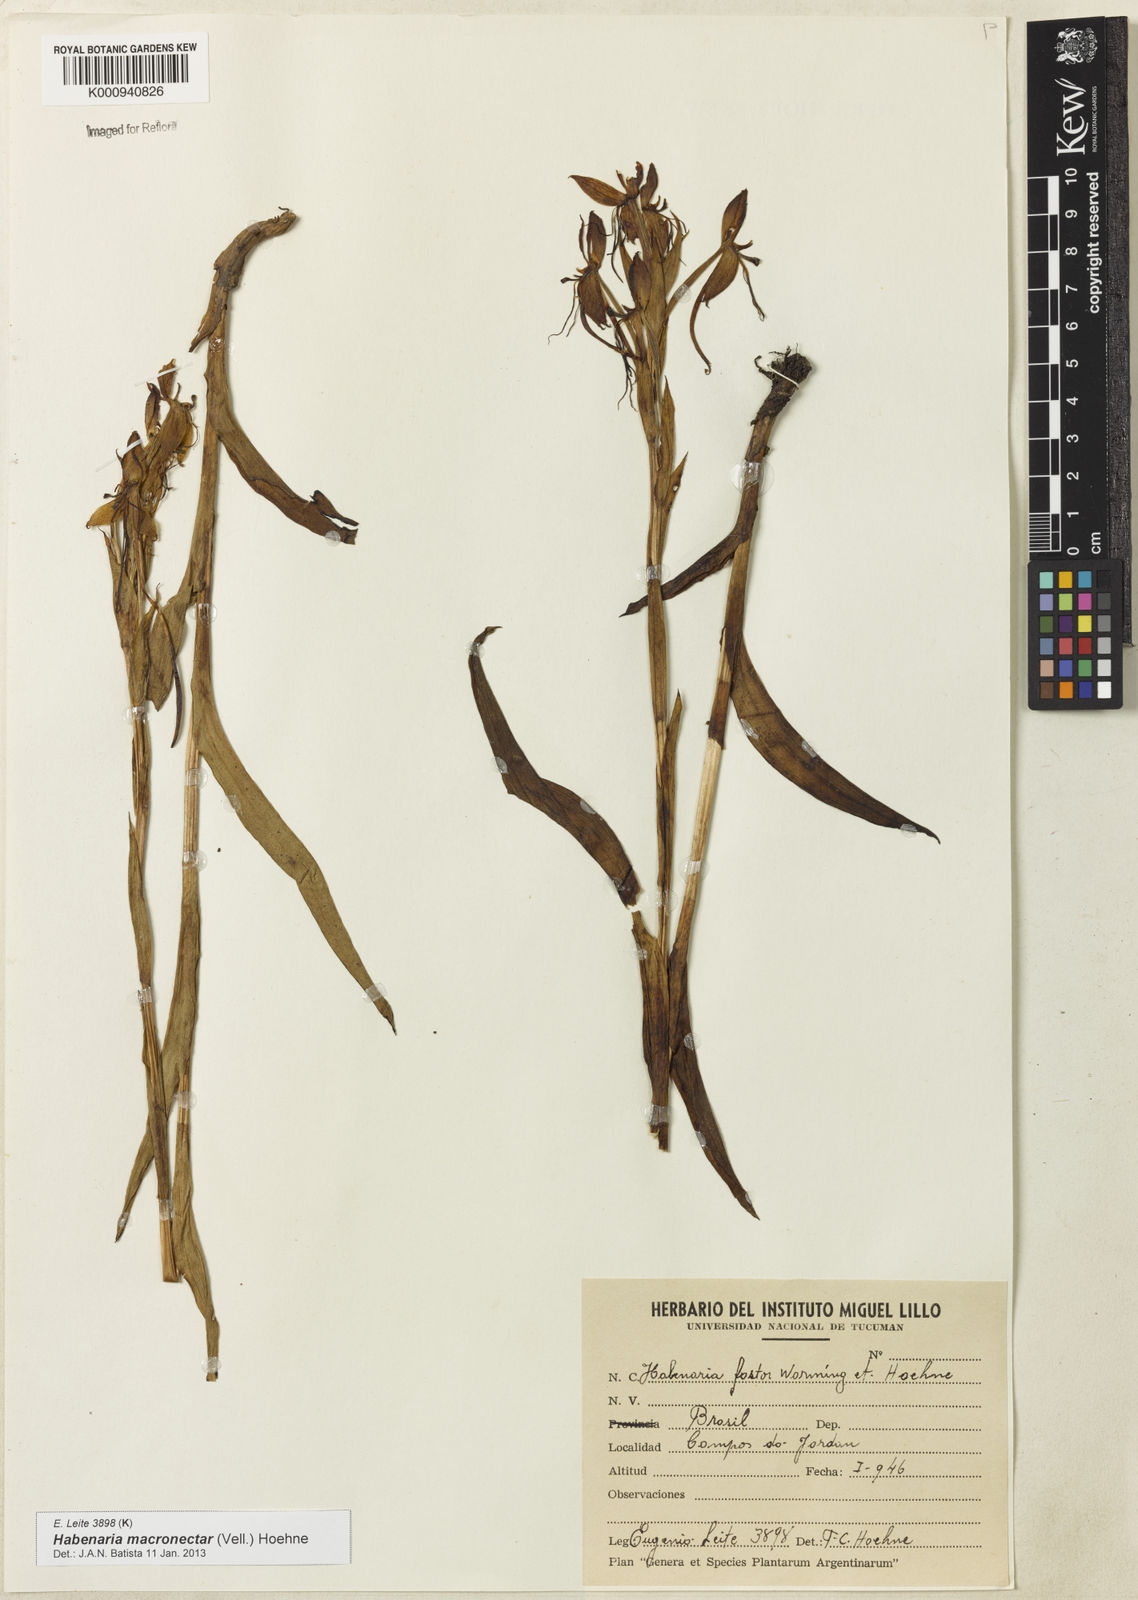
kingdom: Plantae
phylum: Tracheophyta
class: Liliopsida
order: Asparagales
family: Orchidaceae
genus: Habenaria
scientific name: Habenaria macronectar
